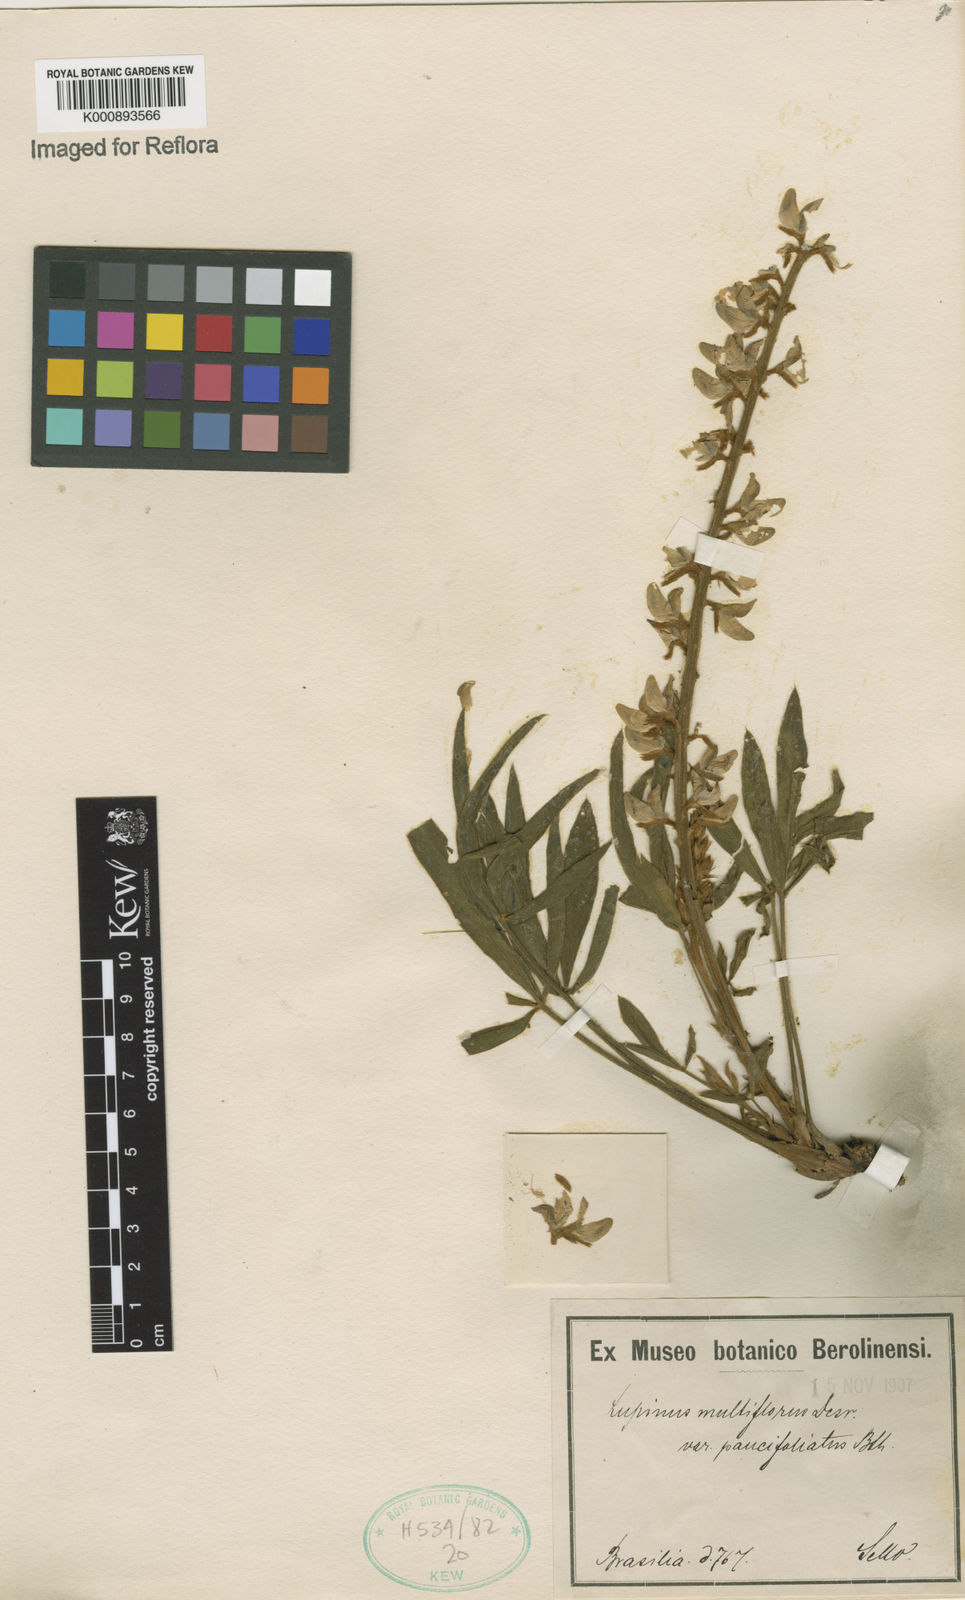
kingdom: Plantae
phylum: Tracheophyta
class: Magnoliopsida
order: Fabales
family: Fabaceae
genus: Lupinus
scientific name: Lupinus multiflorus
